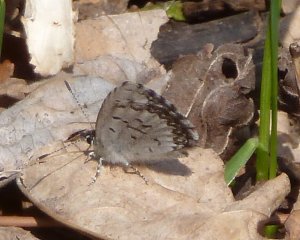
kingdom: Animalia
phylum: Arthropoda
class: Insecta
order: Lepidoptera
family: Lycaenidae
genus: Celastrina
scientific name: Celastrina lucia
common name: Northern Spring Azure
